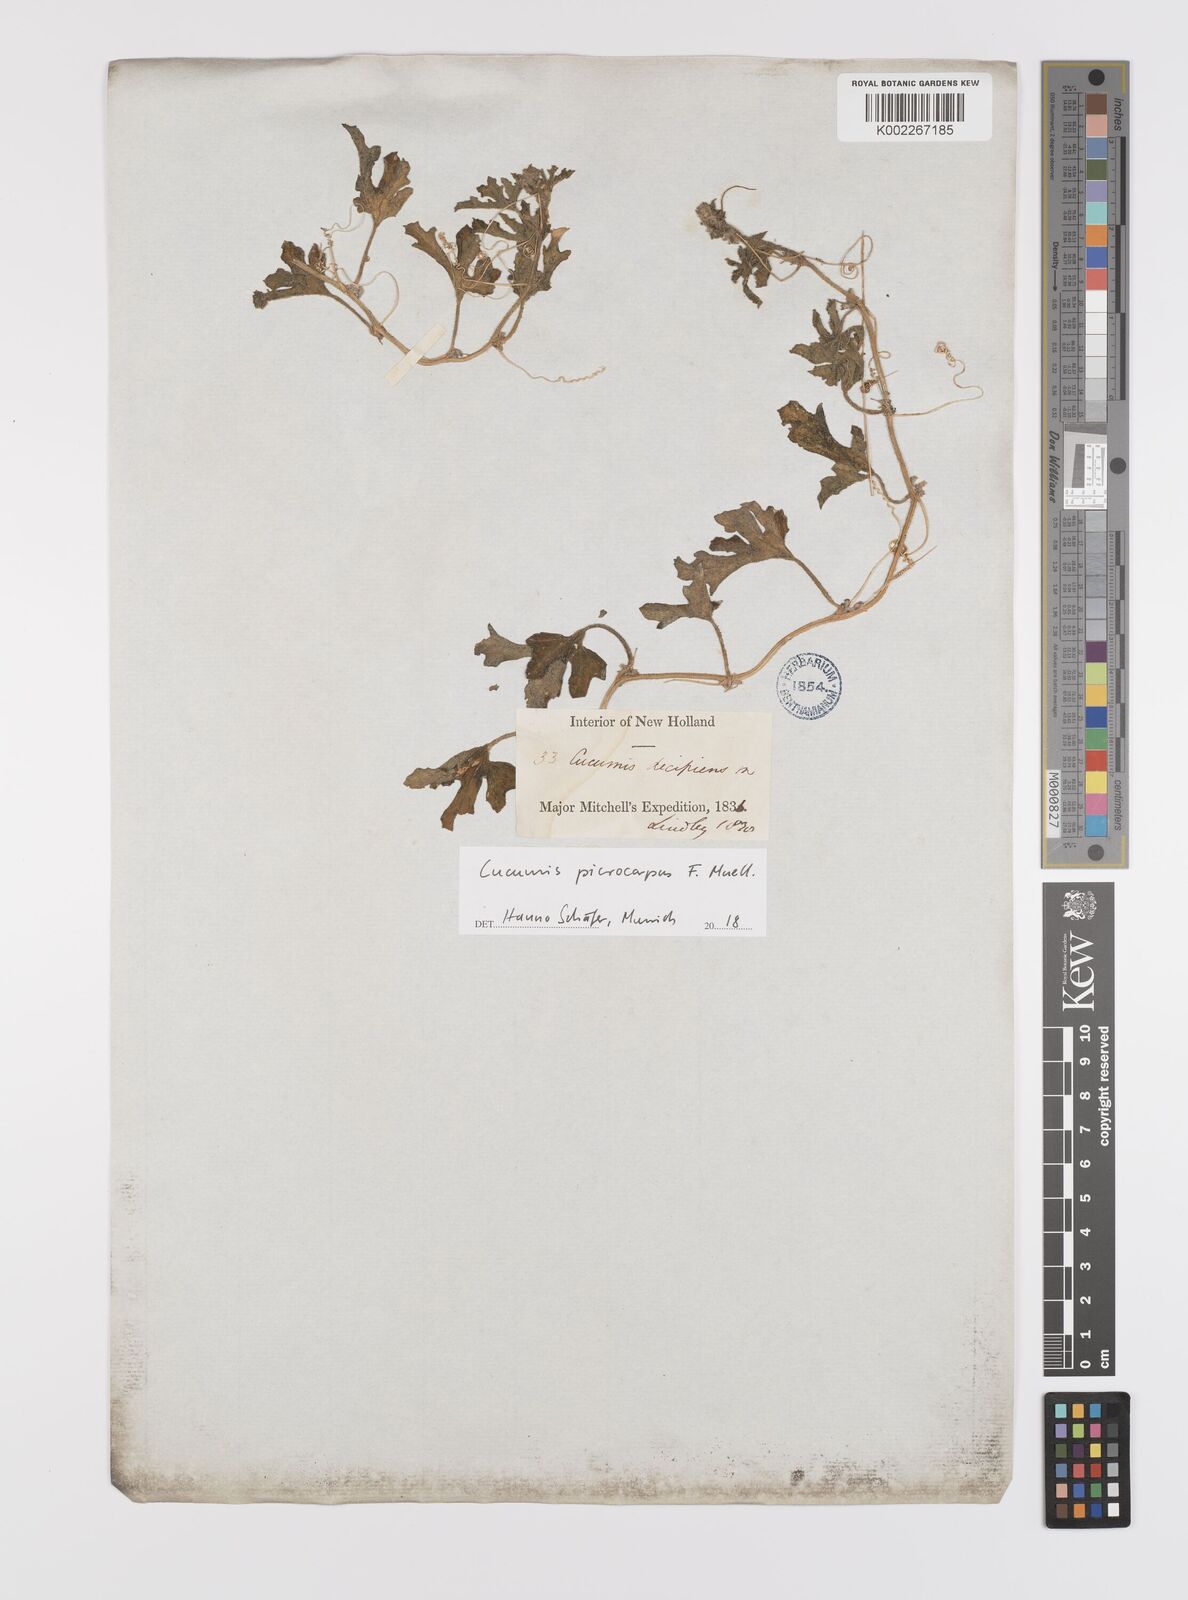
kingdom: Plantae
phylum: Tracheophyta
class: Magnoliopsida
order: Cucurbitales
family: Cucurbitaceae
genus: Cucumis
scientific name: Cucumis melo
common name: Melon
